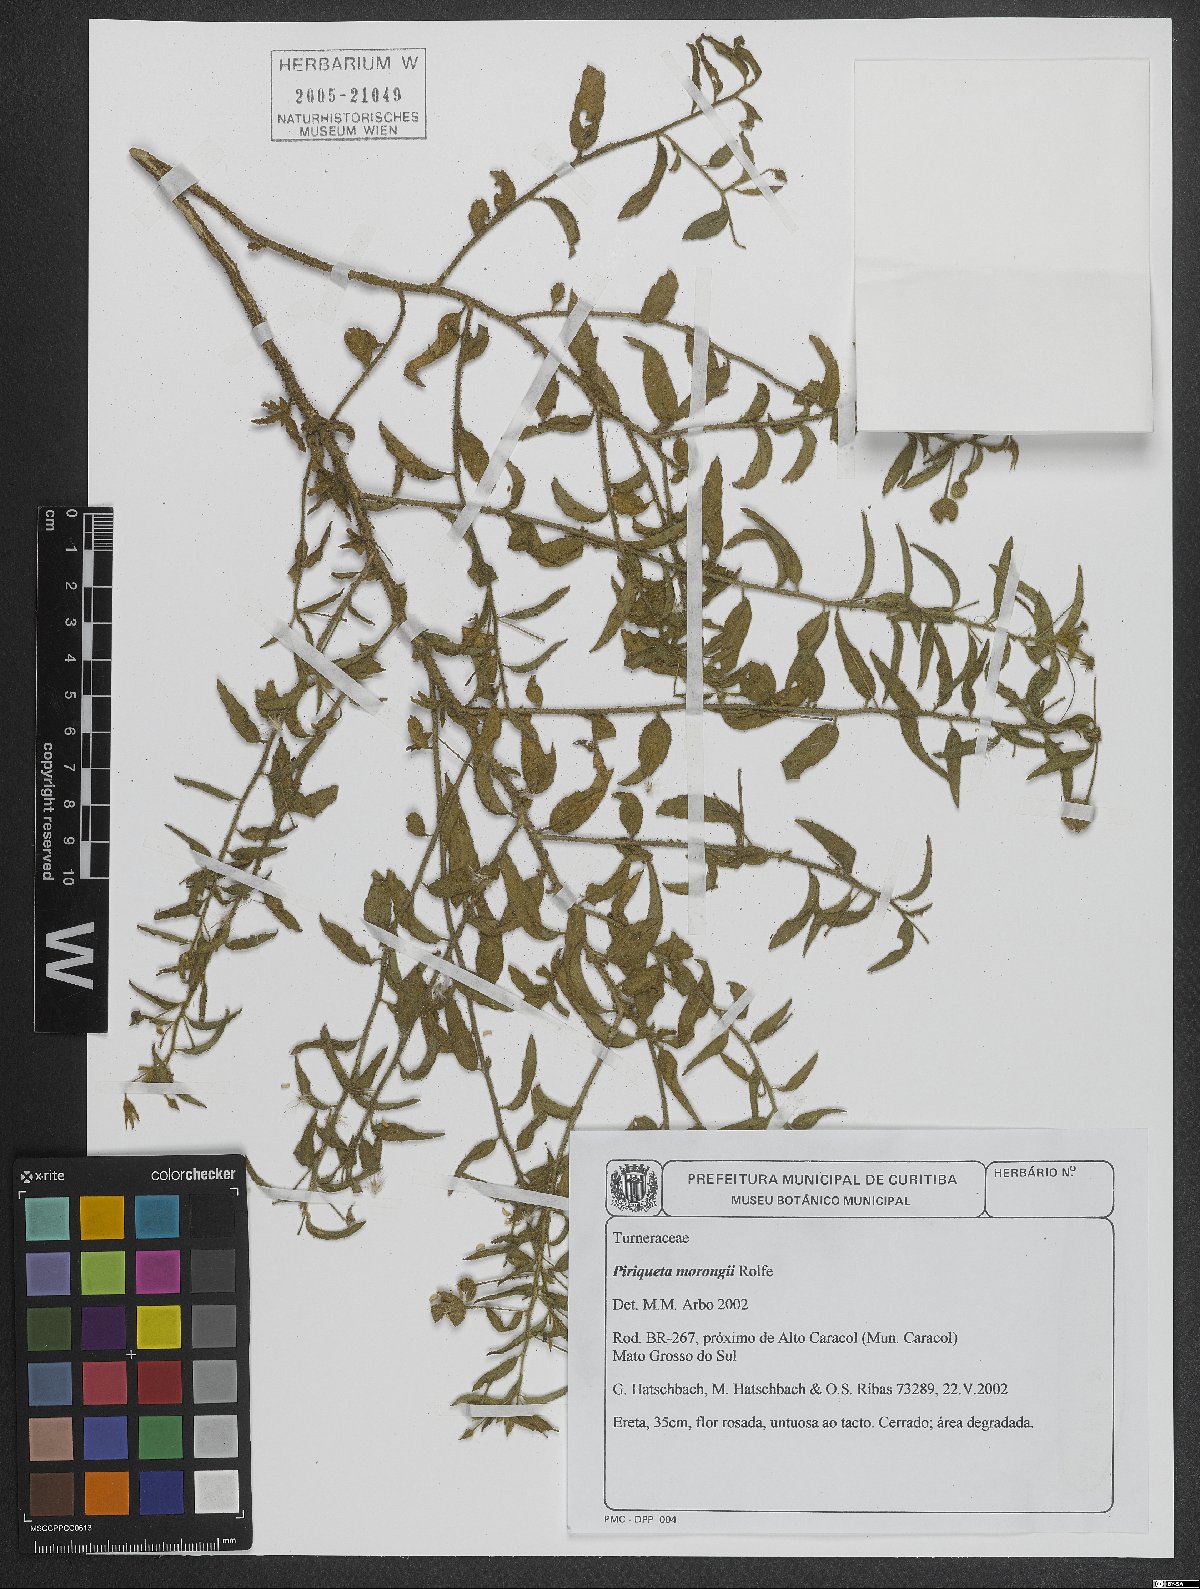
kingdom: Plantae
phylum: Tracheophyta
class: Magnoliopsida
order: Malpighiales
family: Turneraceae
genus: Piriqueta
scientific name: Piriqueta morongii
